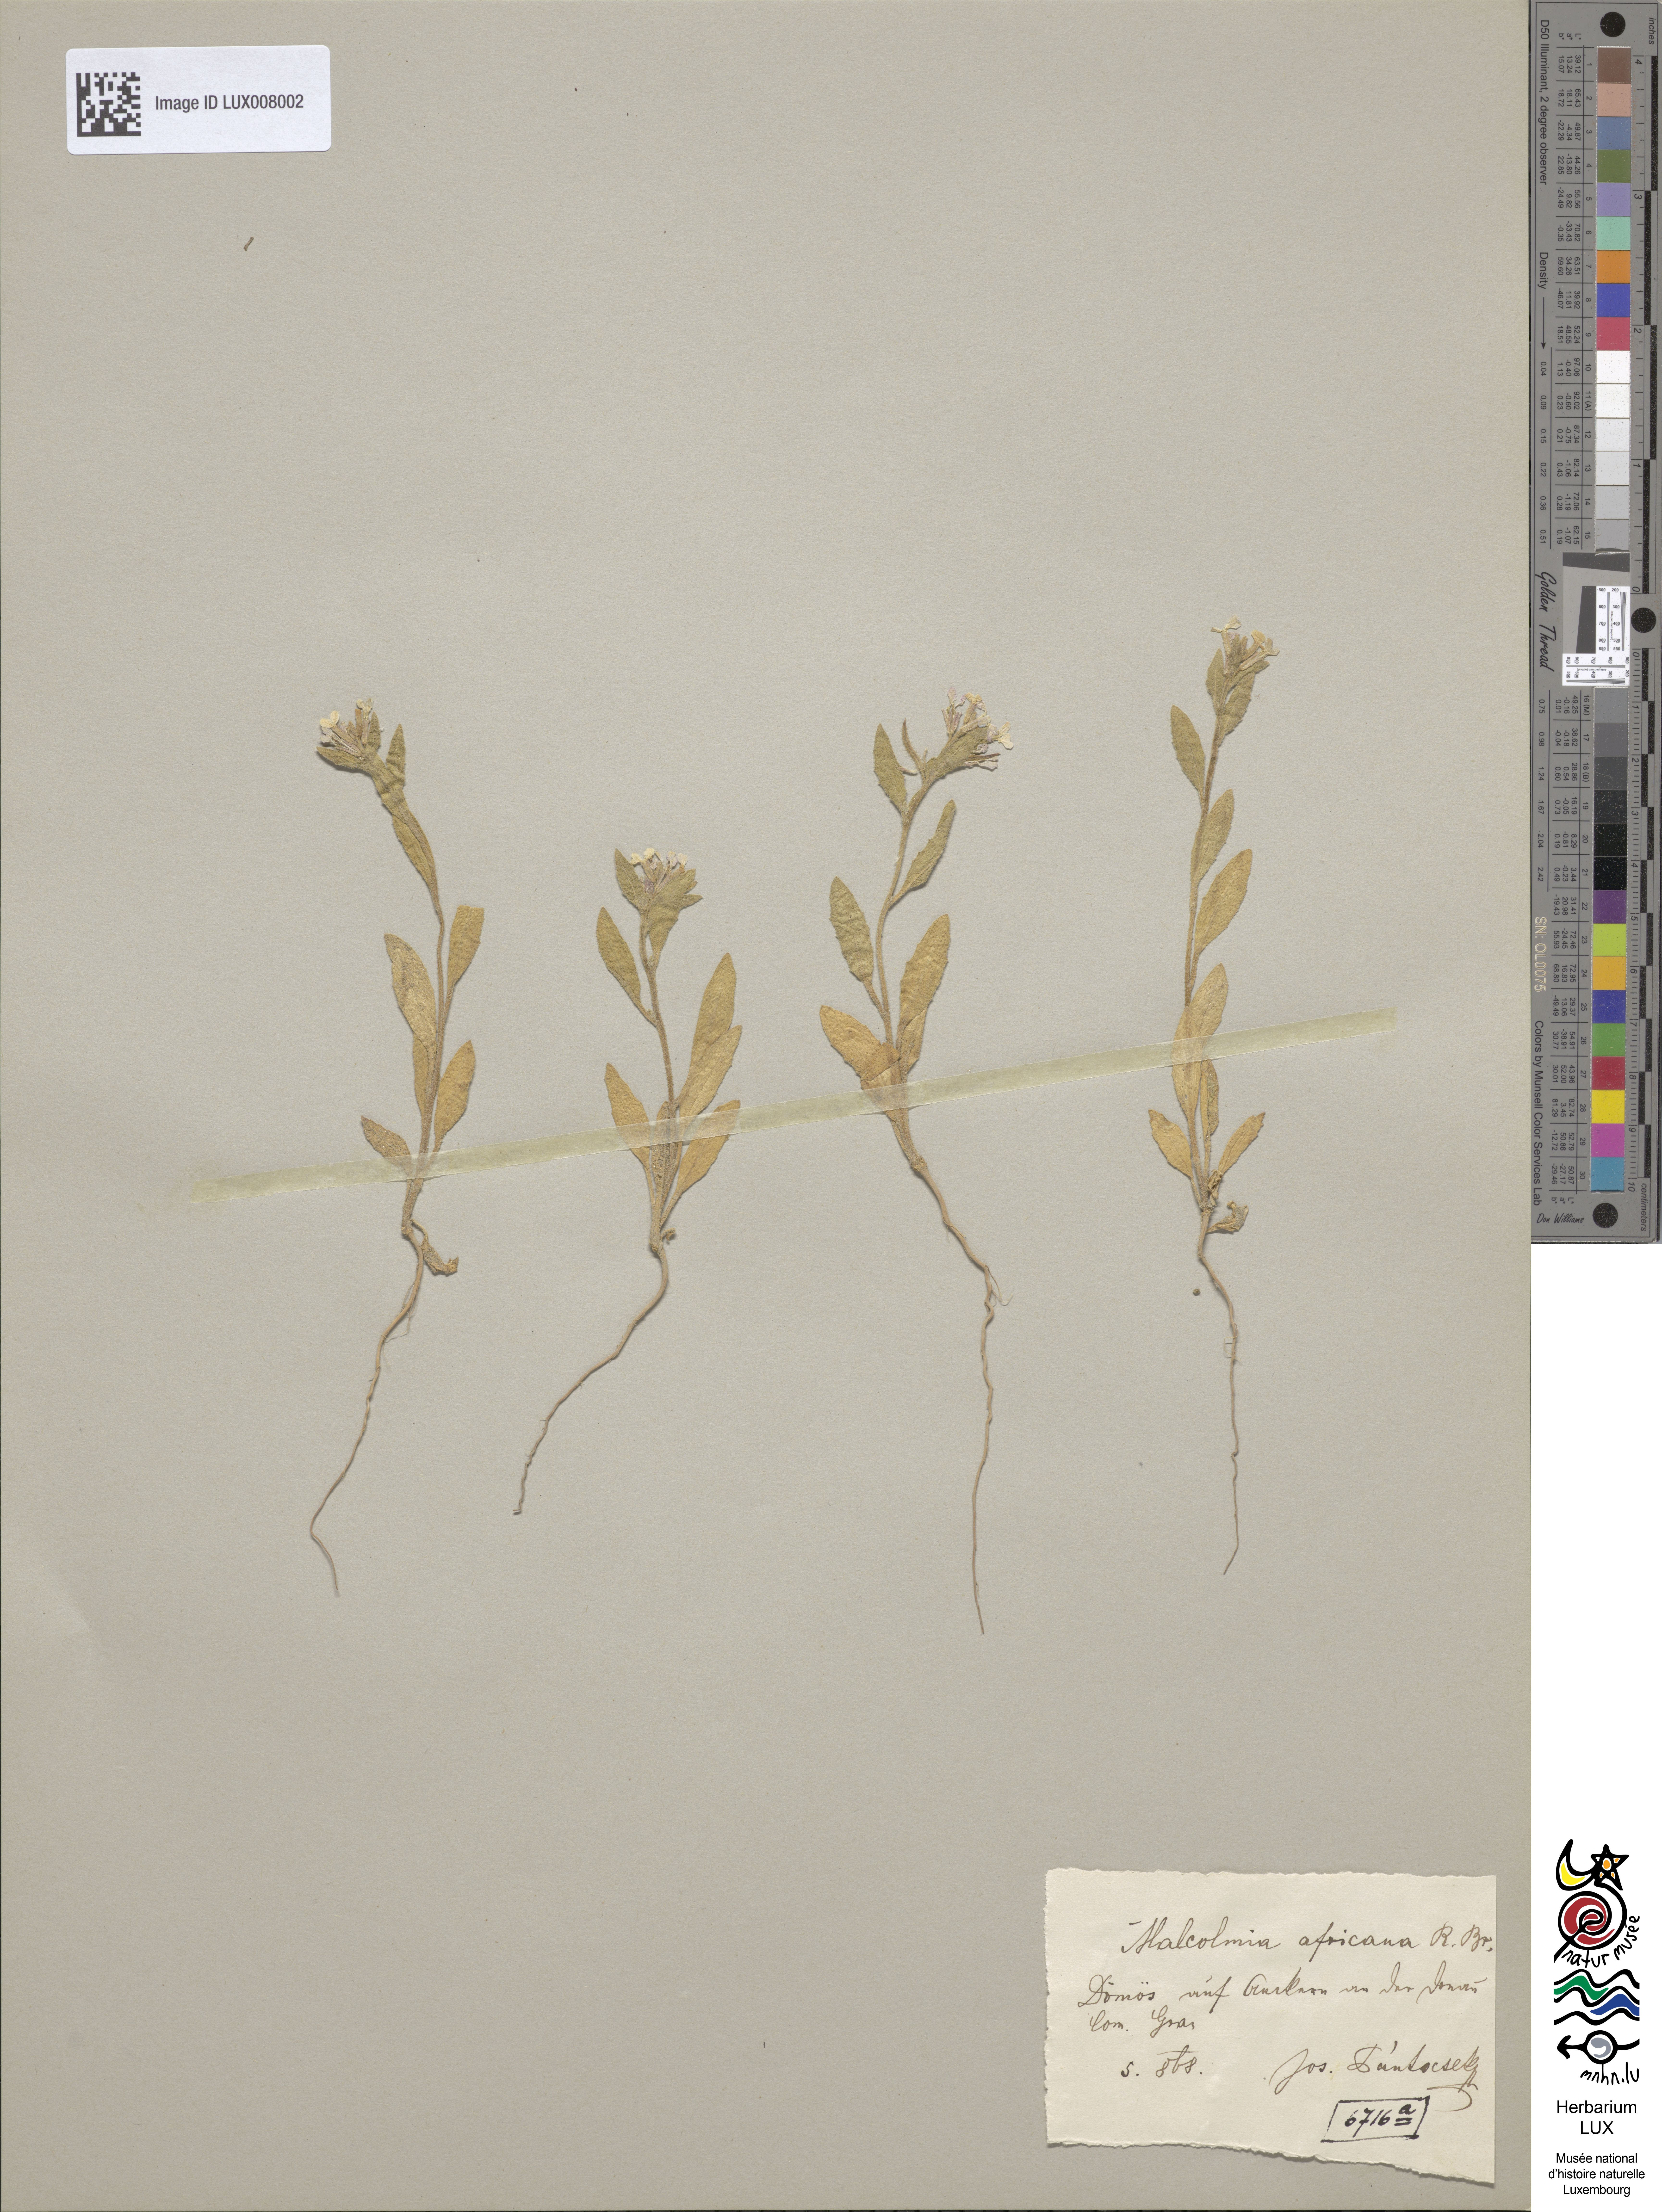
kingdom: Plantae
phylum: Tracheophyta
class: Magnoliopsida
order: Brassicales
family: Brassicaceae
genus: Malcolmia
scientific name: Malcolmia africana
